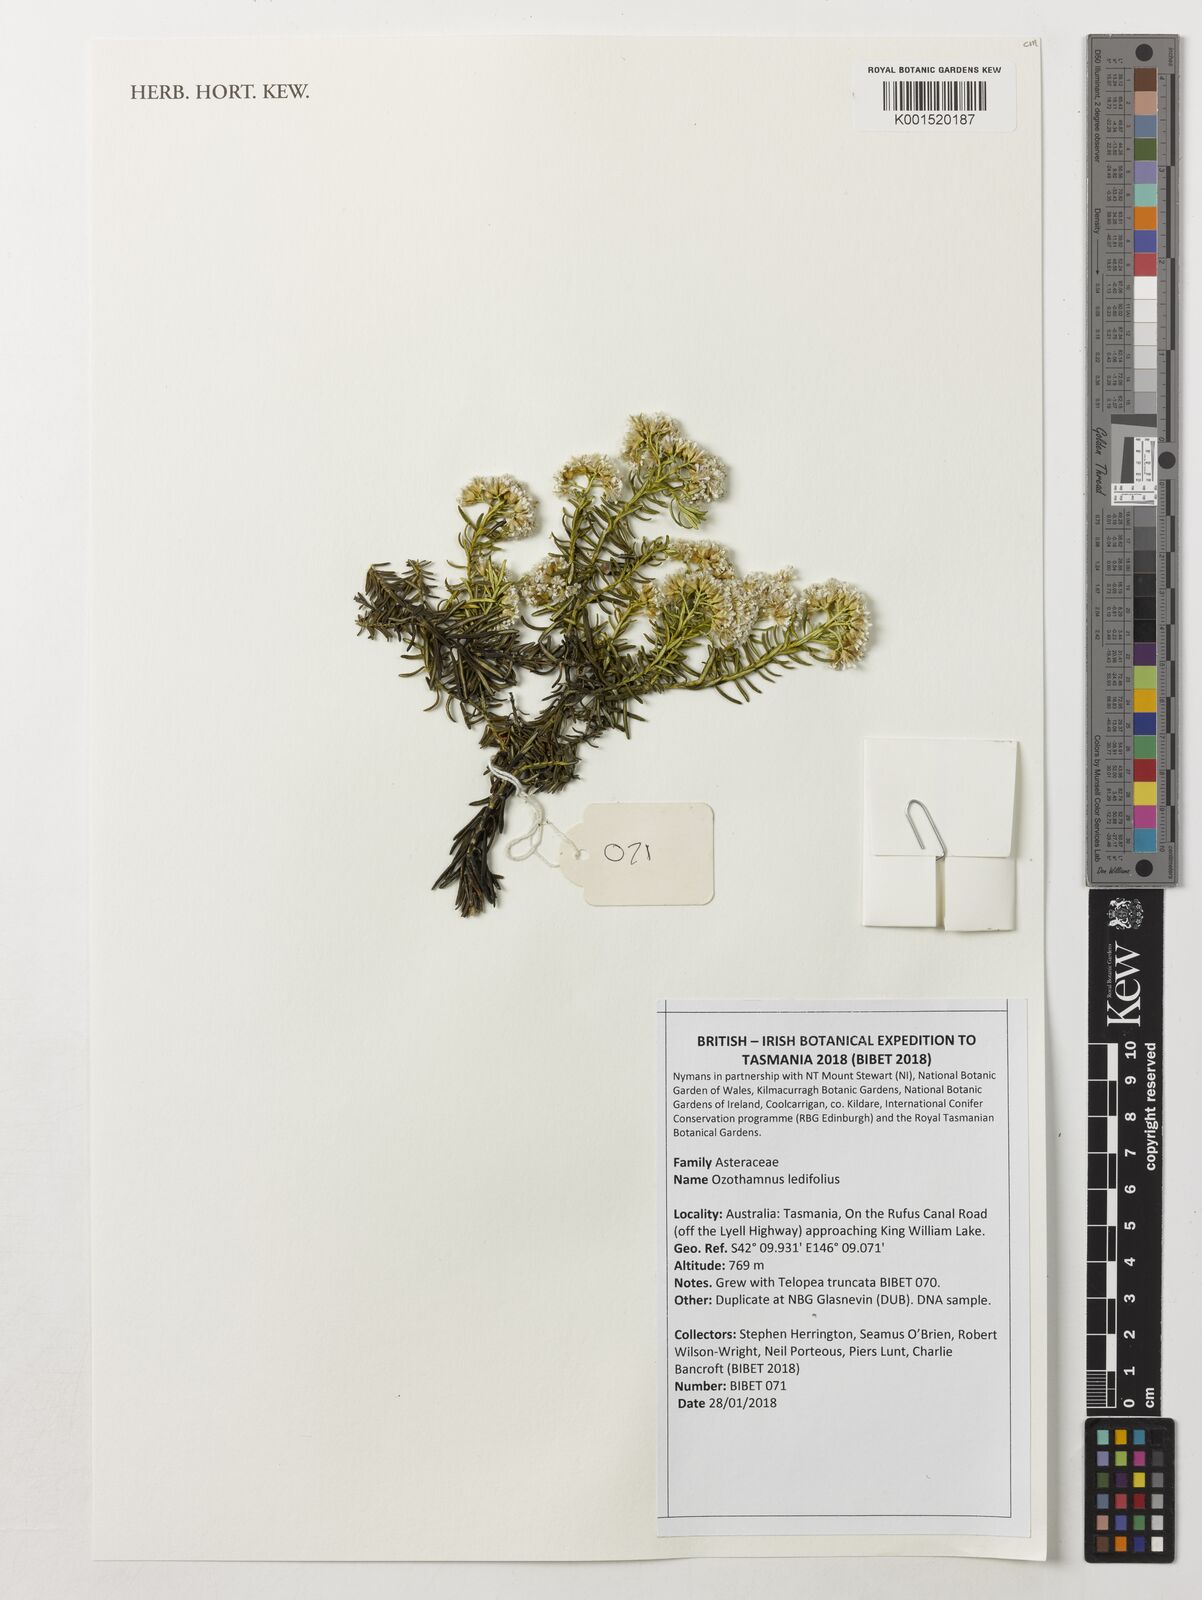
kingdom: Plantae
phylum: Tracheophyta
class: Magnoliopsida
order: Asterales
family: Asteraceae
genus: Ozothamnus
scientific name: Ozothamnus ledifolius
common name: Kerosene-weed
